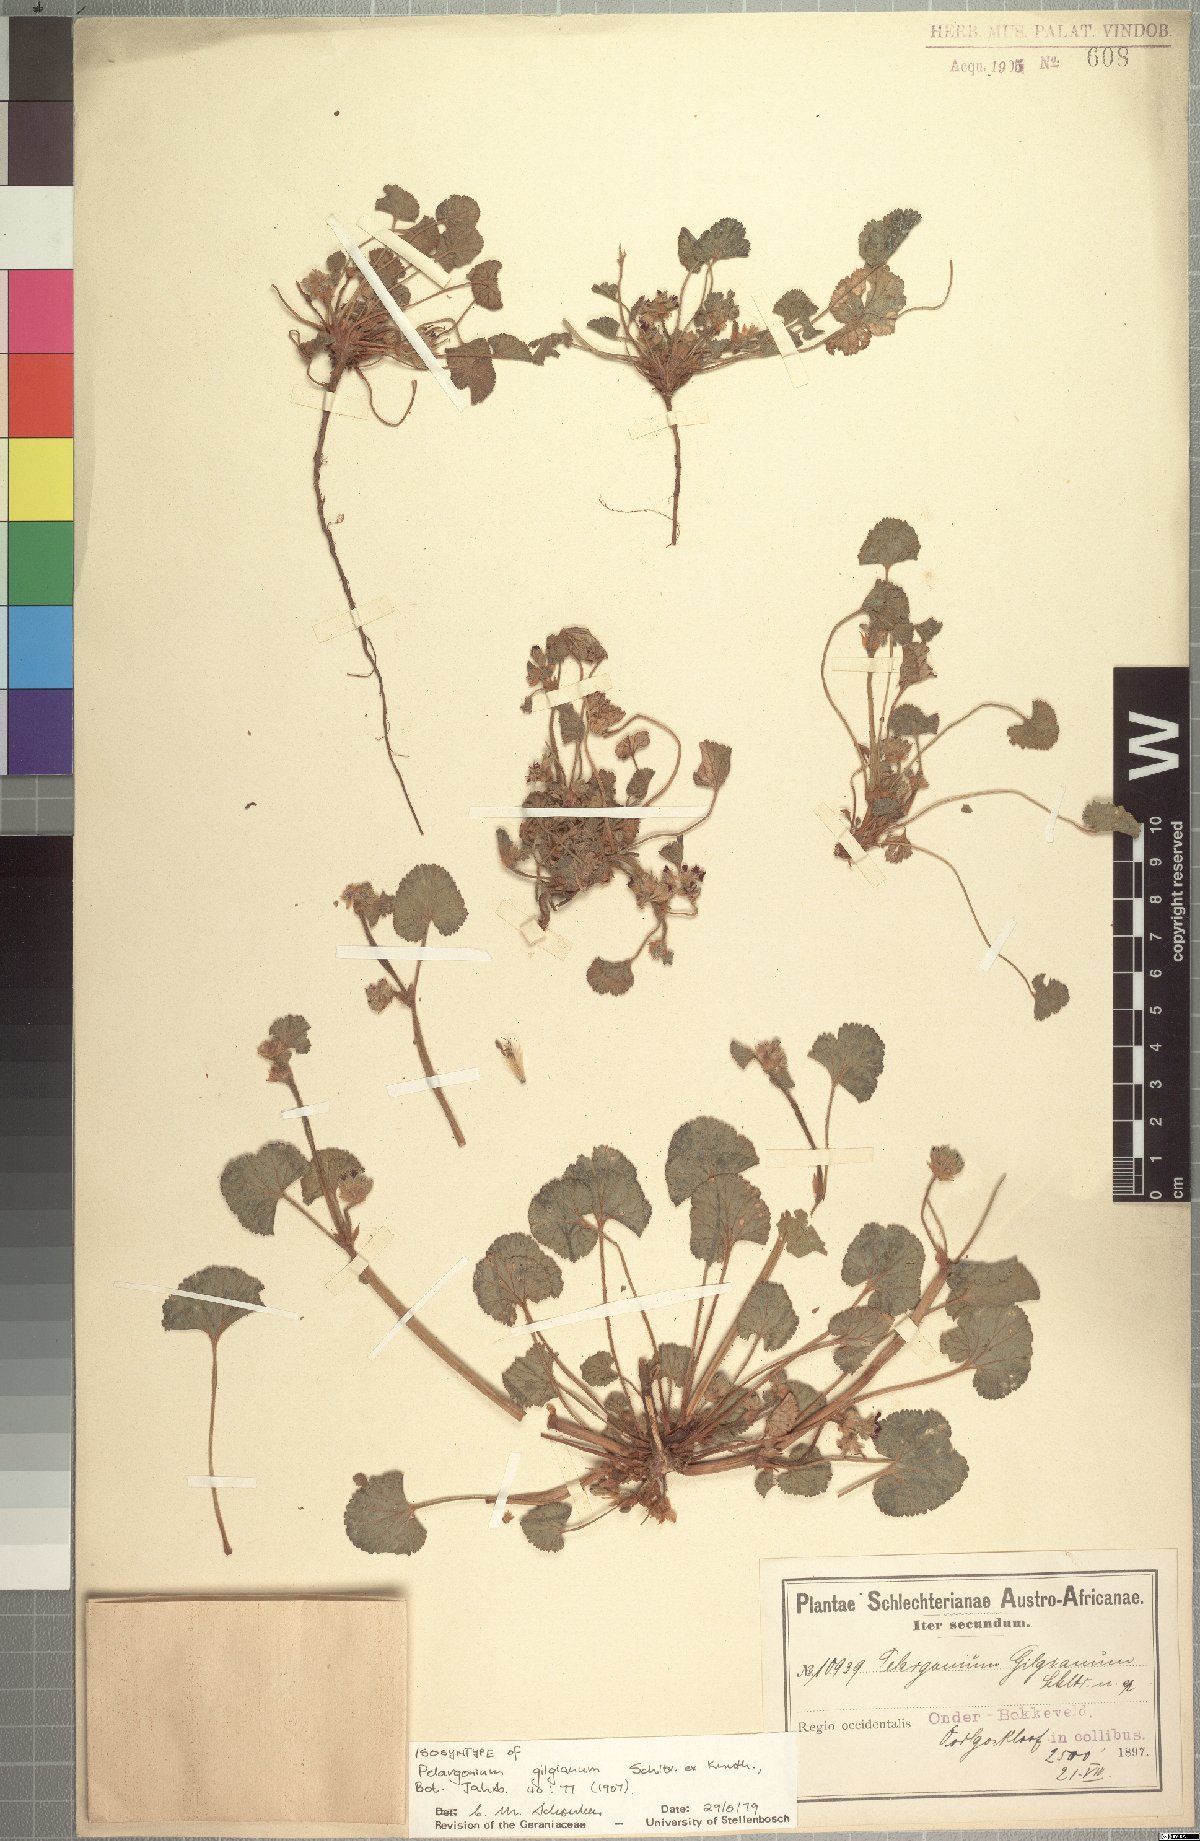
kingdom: Plantae
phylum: Tracheophyta
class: Magnoliopsida
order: Geraniales
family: Geraniaceae
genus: Pelargonium
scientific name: Pelargonium gilgianum
